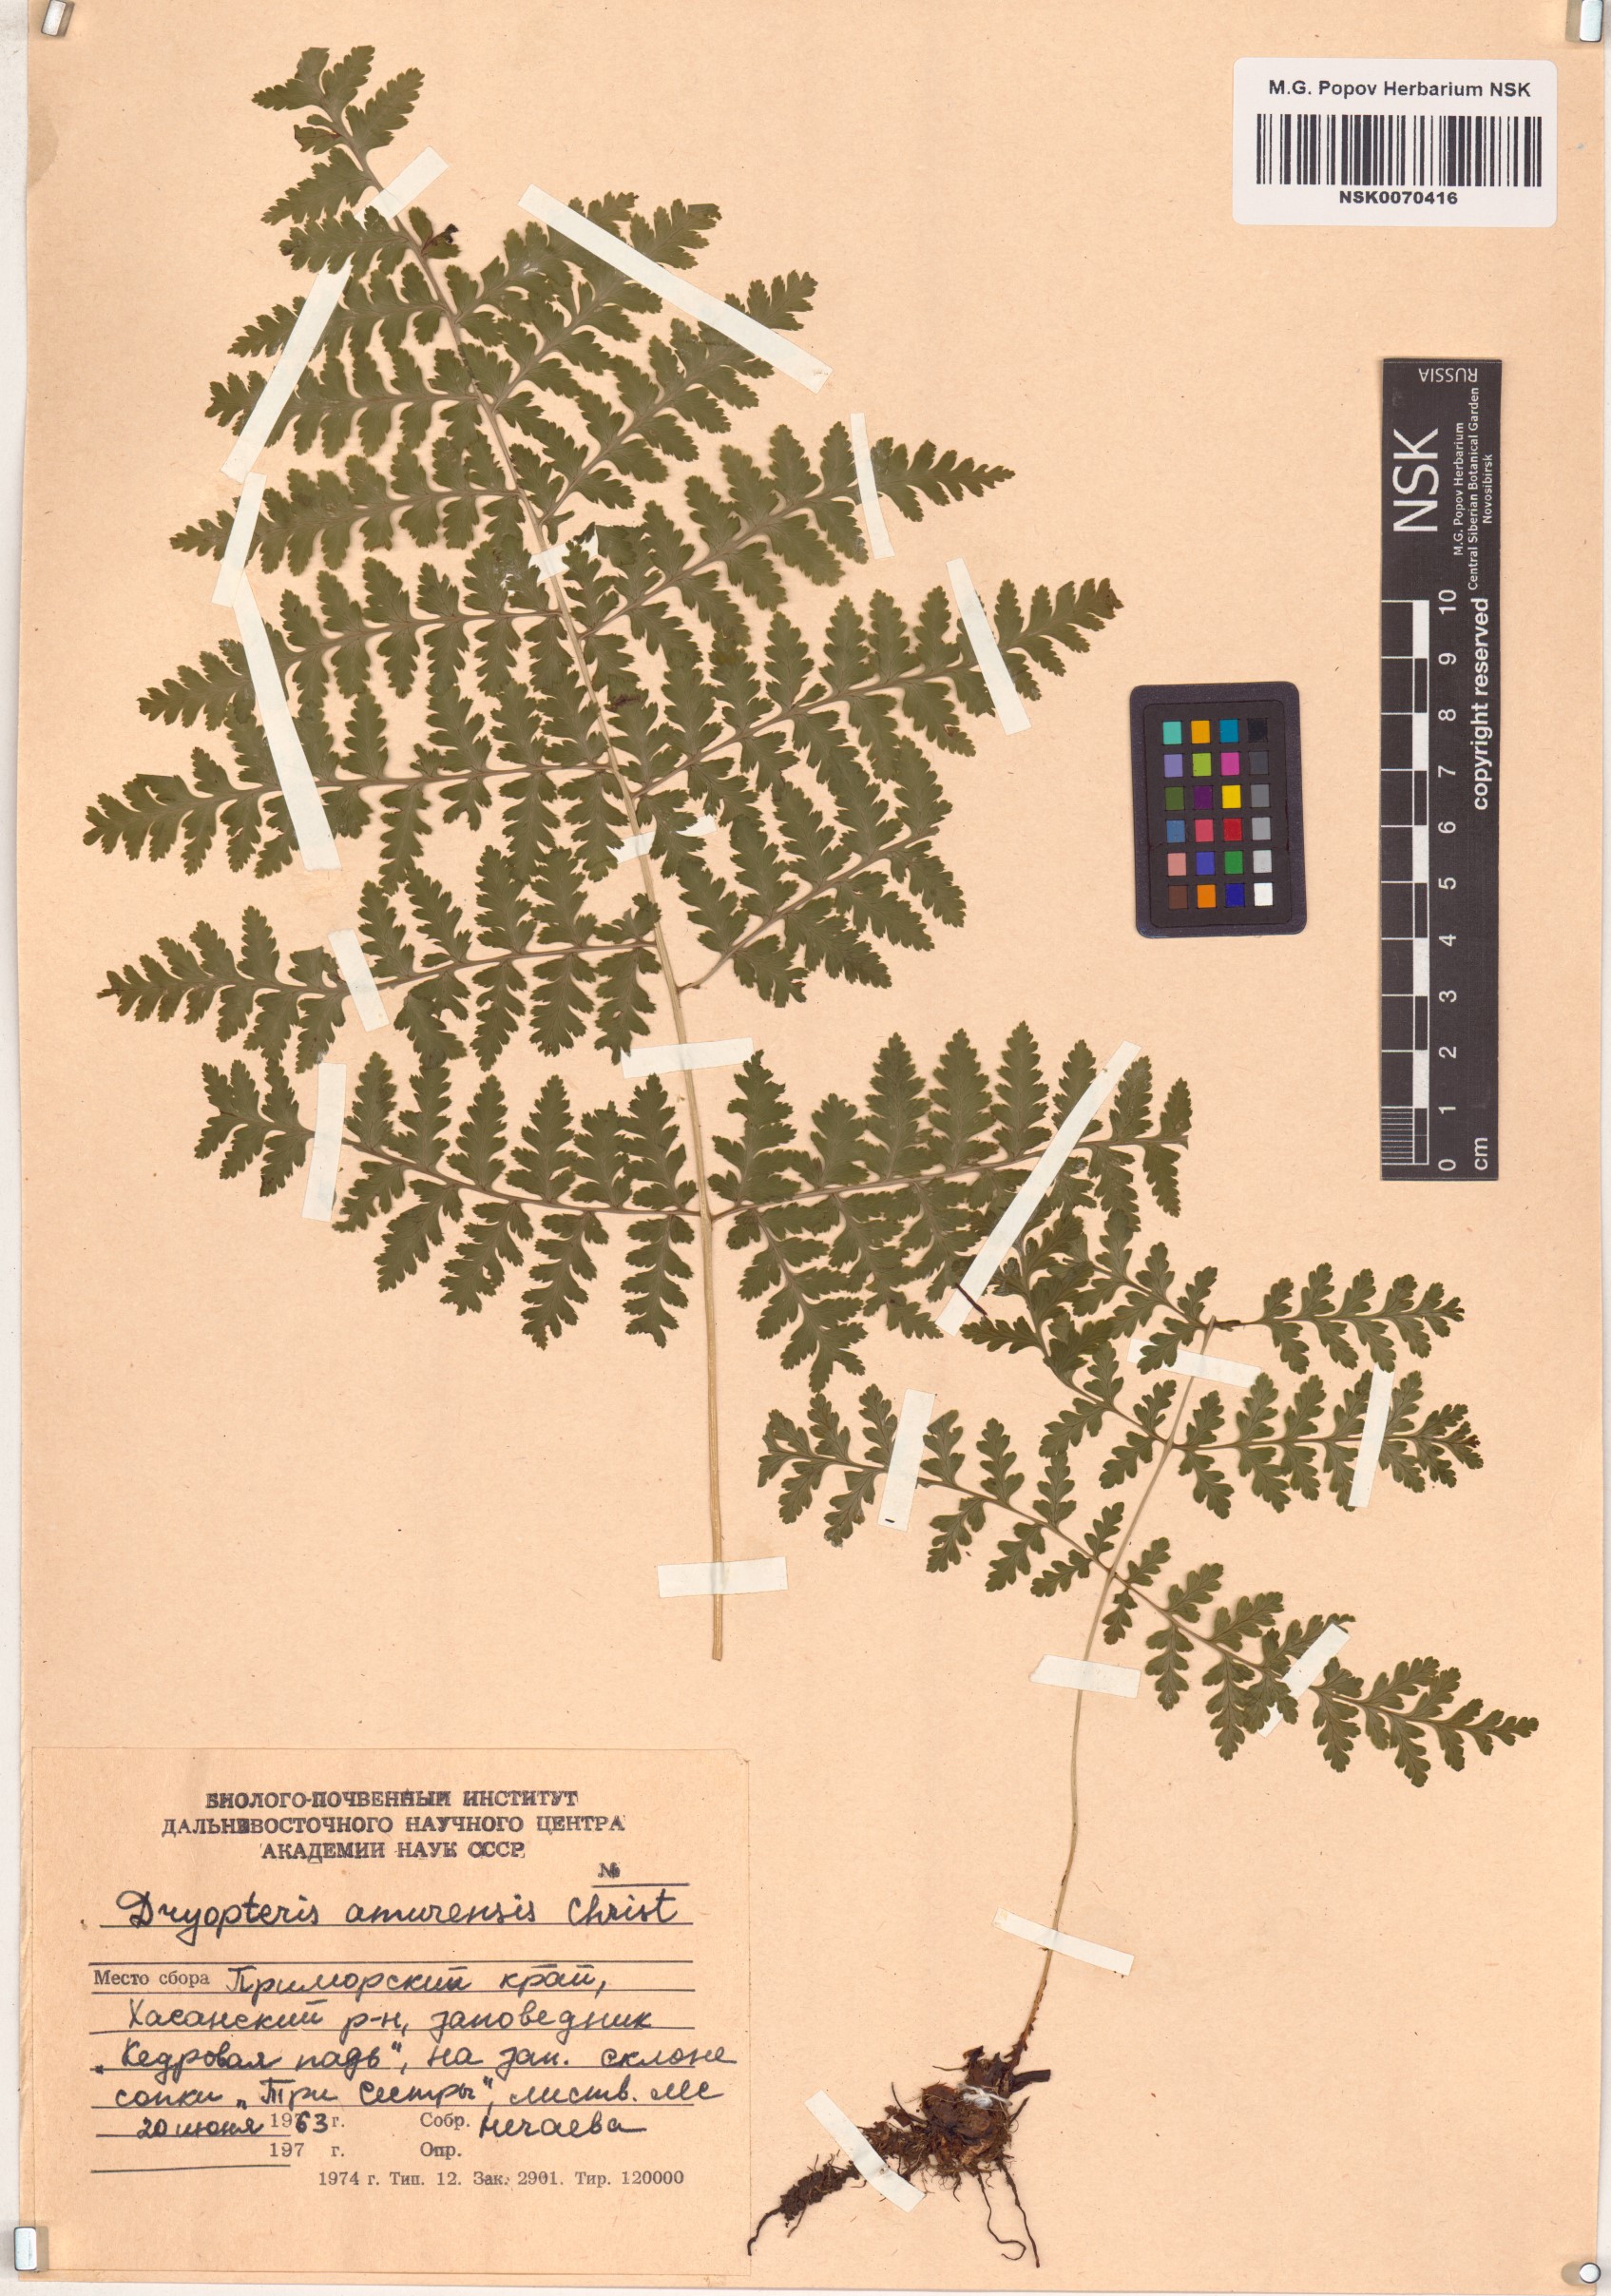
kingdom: Plantae
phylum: Tracheophyta
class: Polypodiopsida
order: Polypodiales
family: Dryopteridaceae
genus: Dryopteris
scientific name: Dryopteris amurensis
